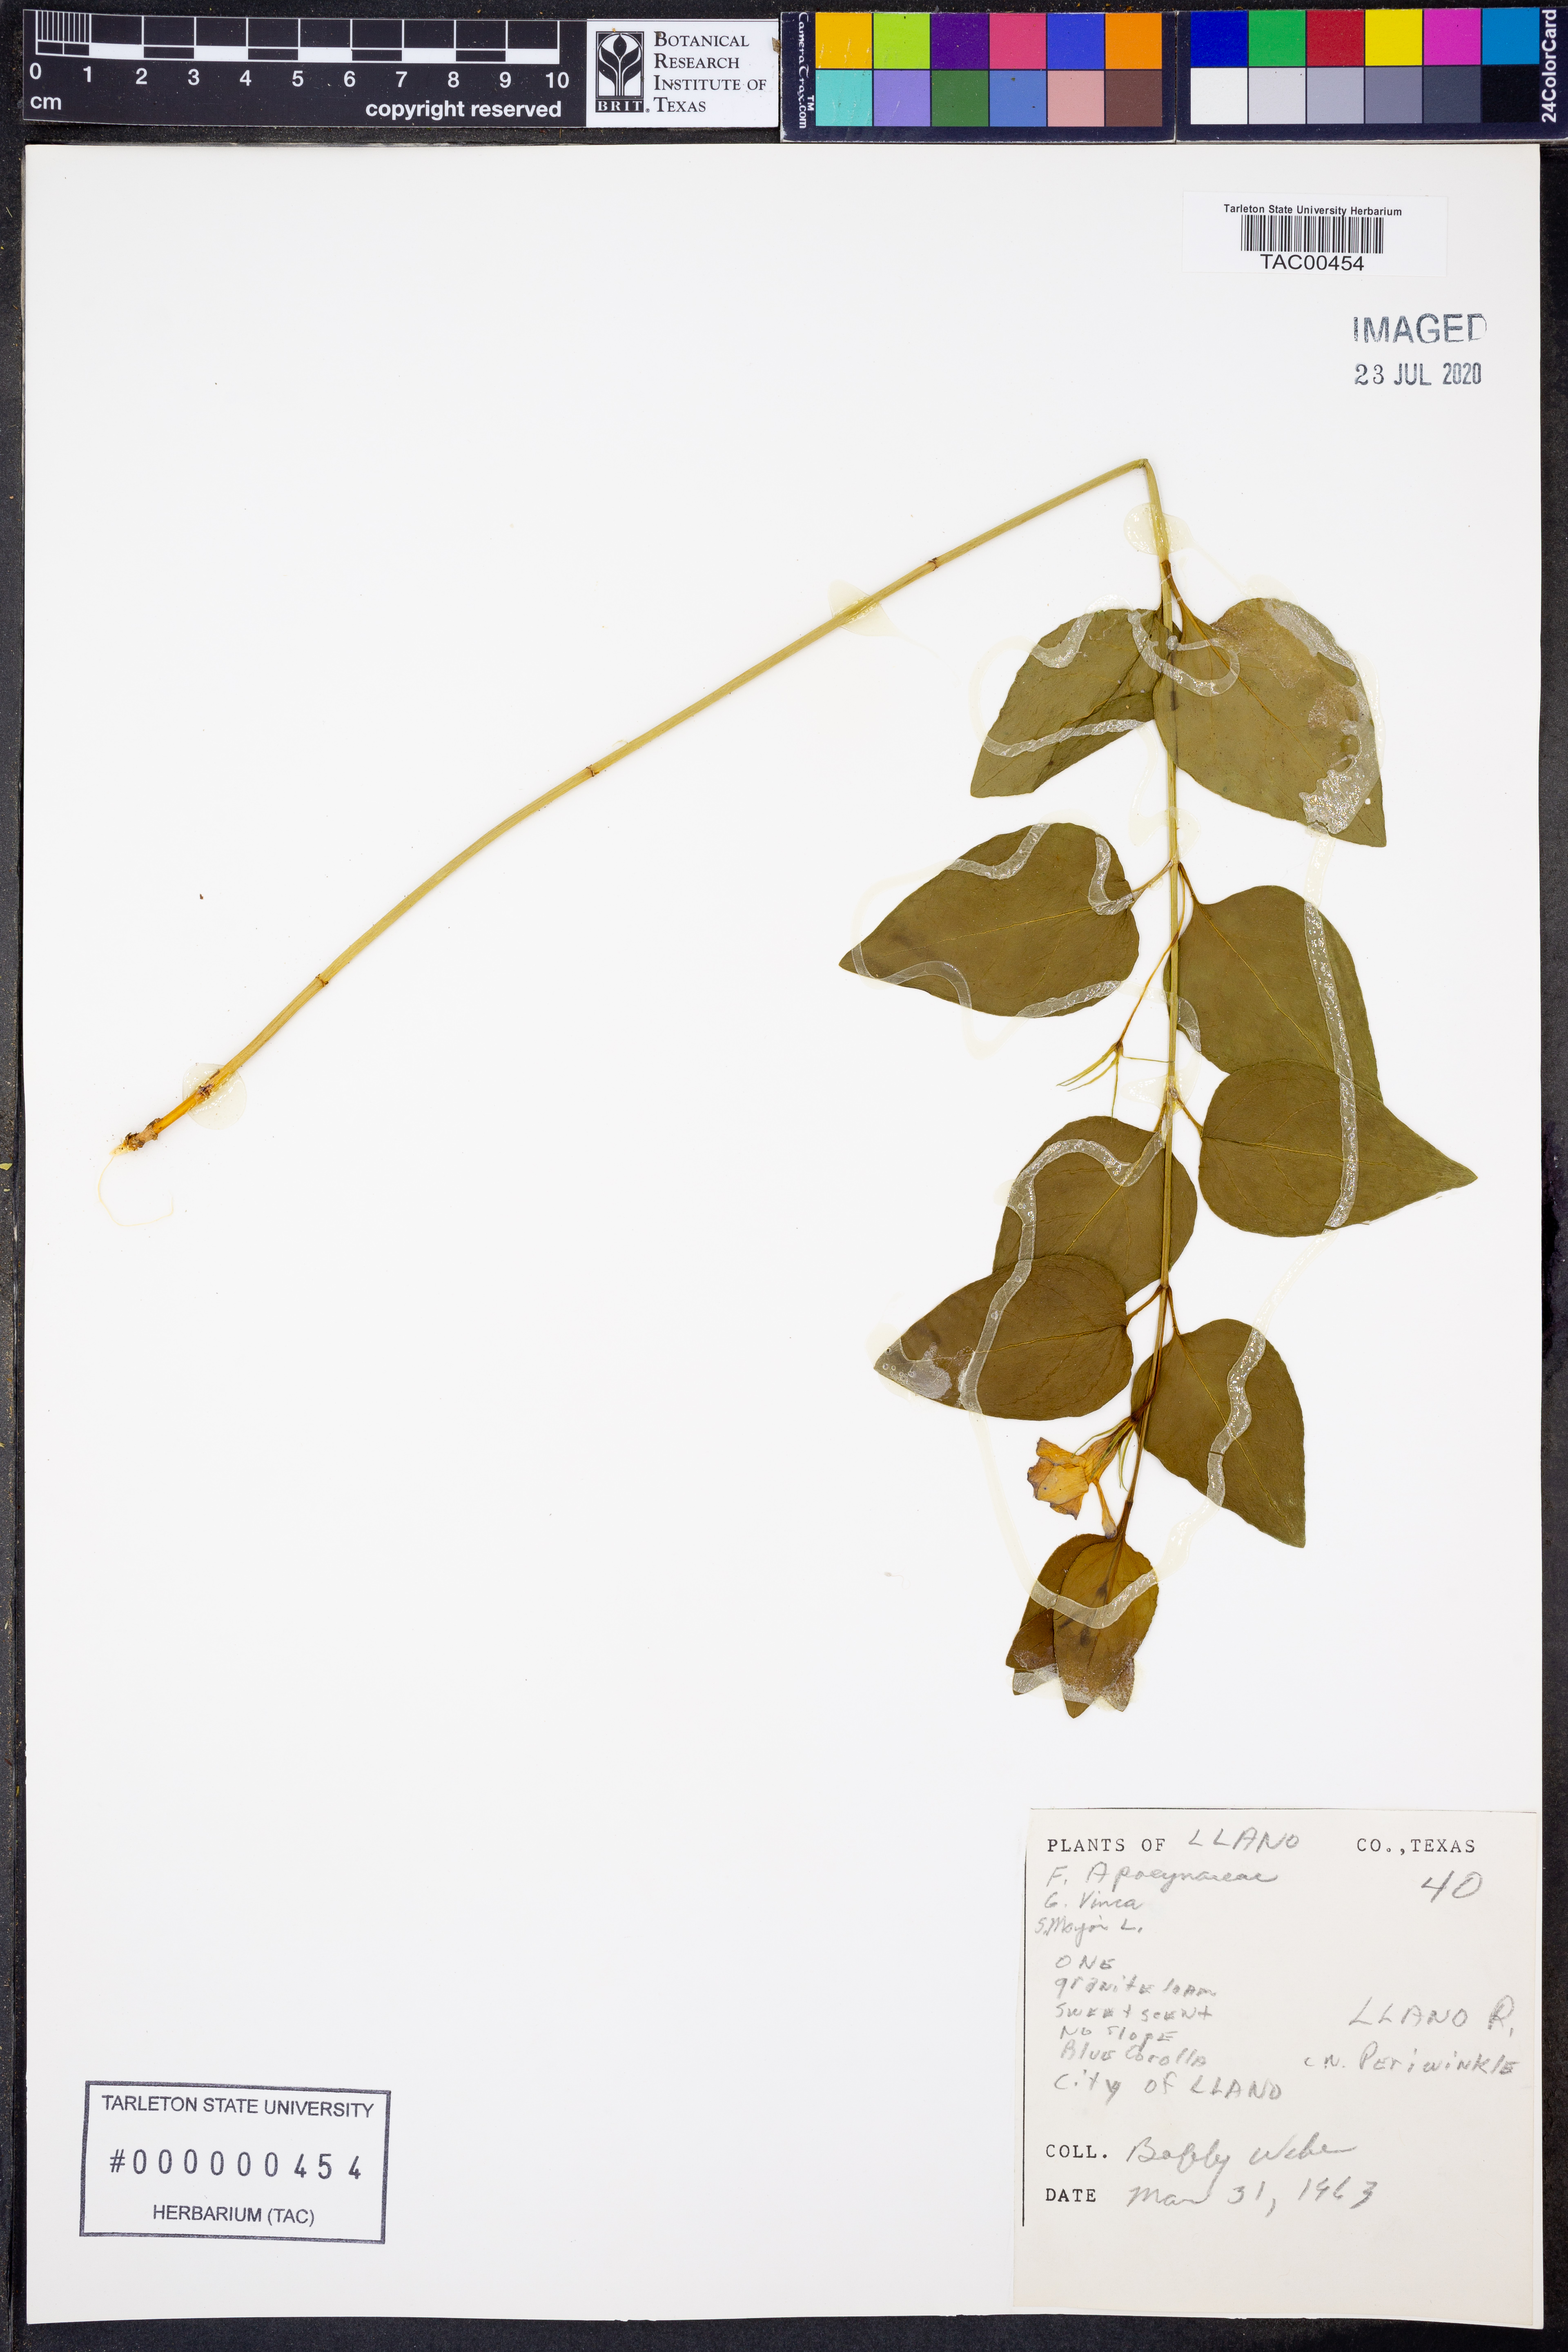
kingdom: Plantae
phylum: Tracheophyta
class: Magnoliopsida
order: Gentianales
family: Apocynaceae
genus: Vinca
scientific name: Vinca major
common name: Greater periwinkle
